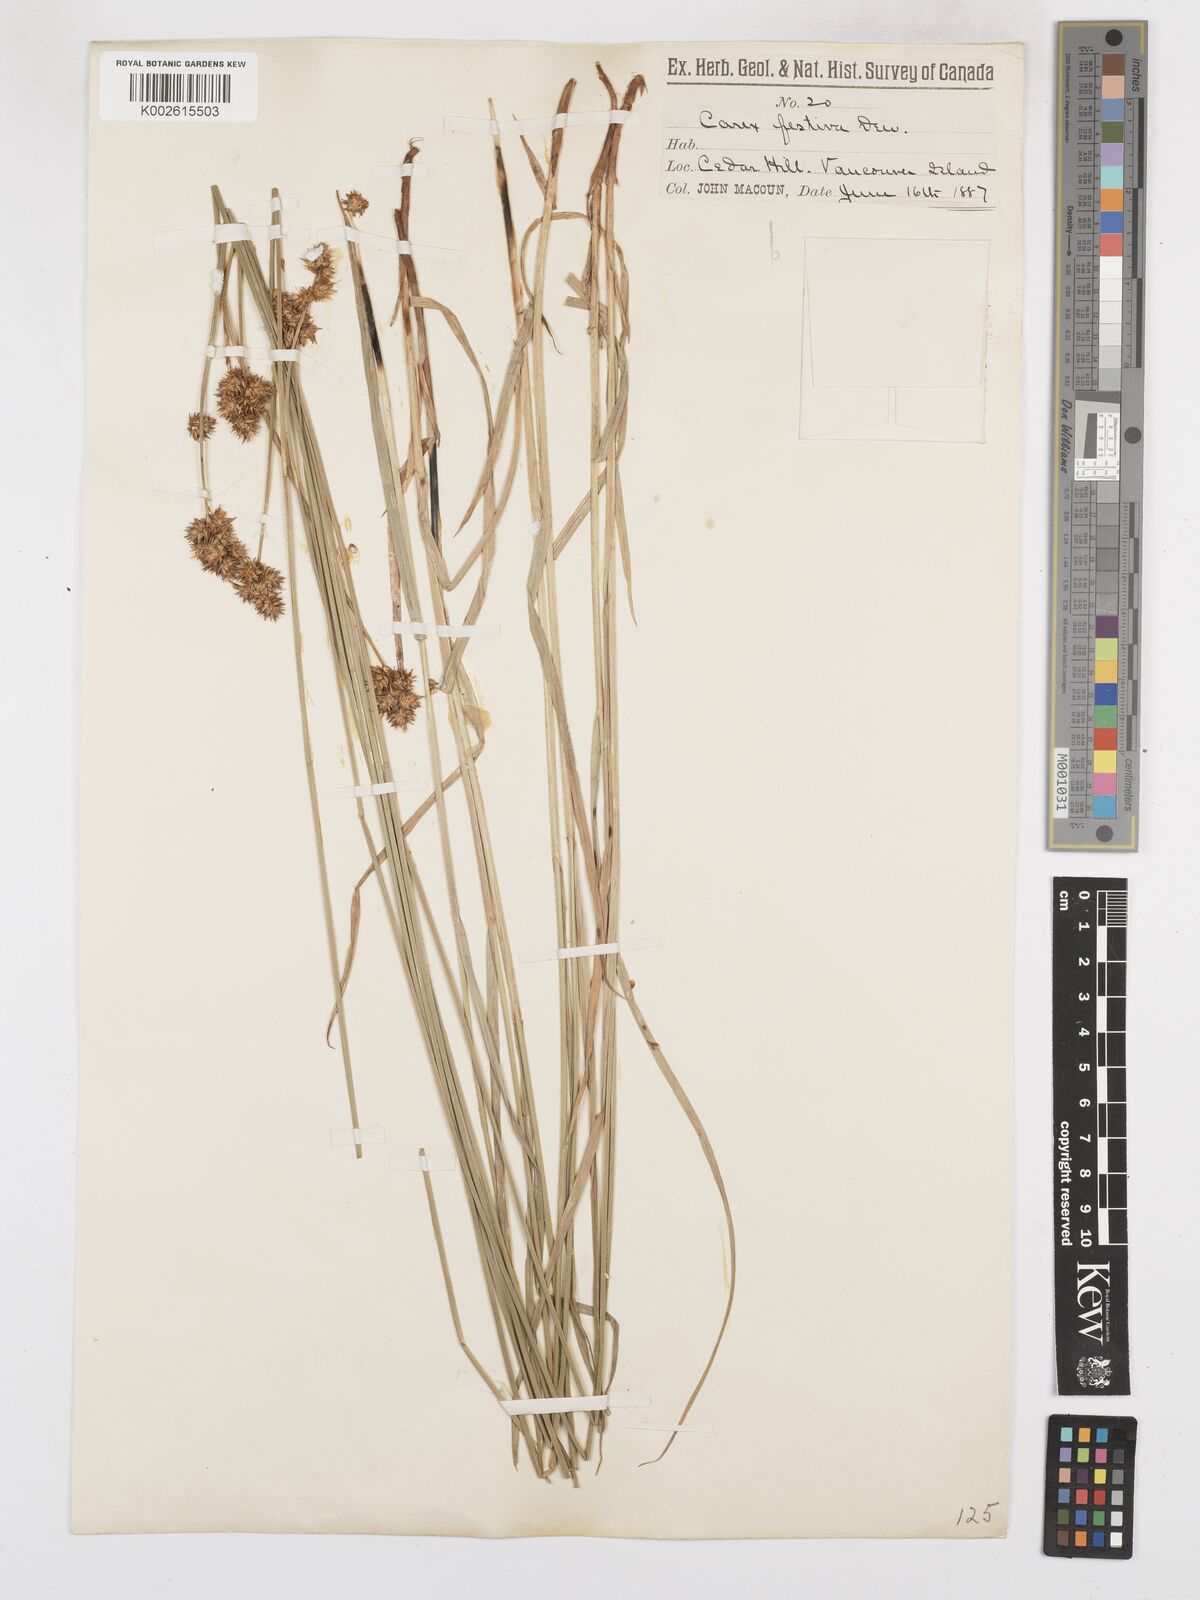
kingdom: Plantae
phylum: Tracheophyta
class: Liliopsida
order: Poales
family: Cyperaceae
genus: Carex
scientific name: Carex macloviana
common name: Falkland island sedge
